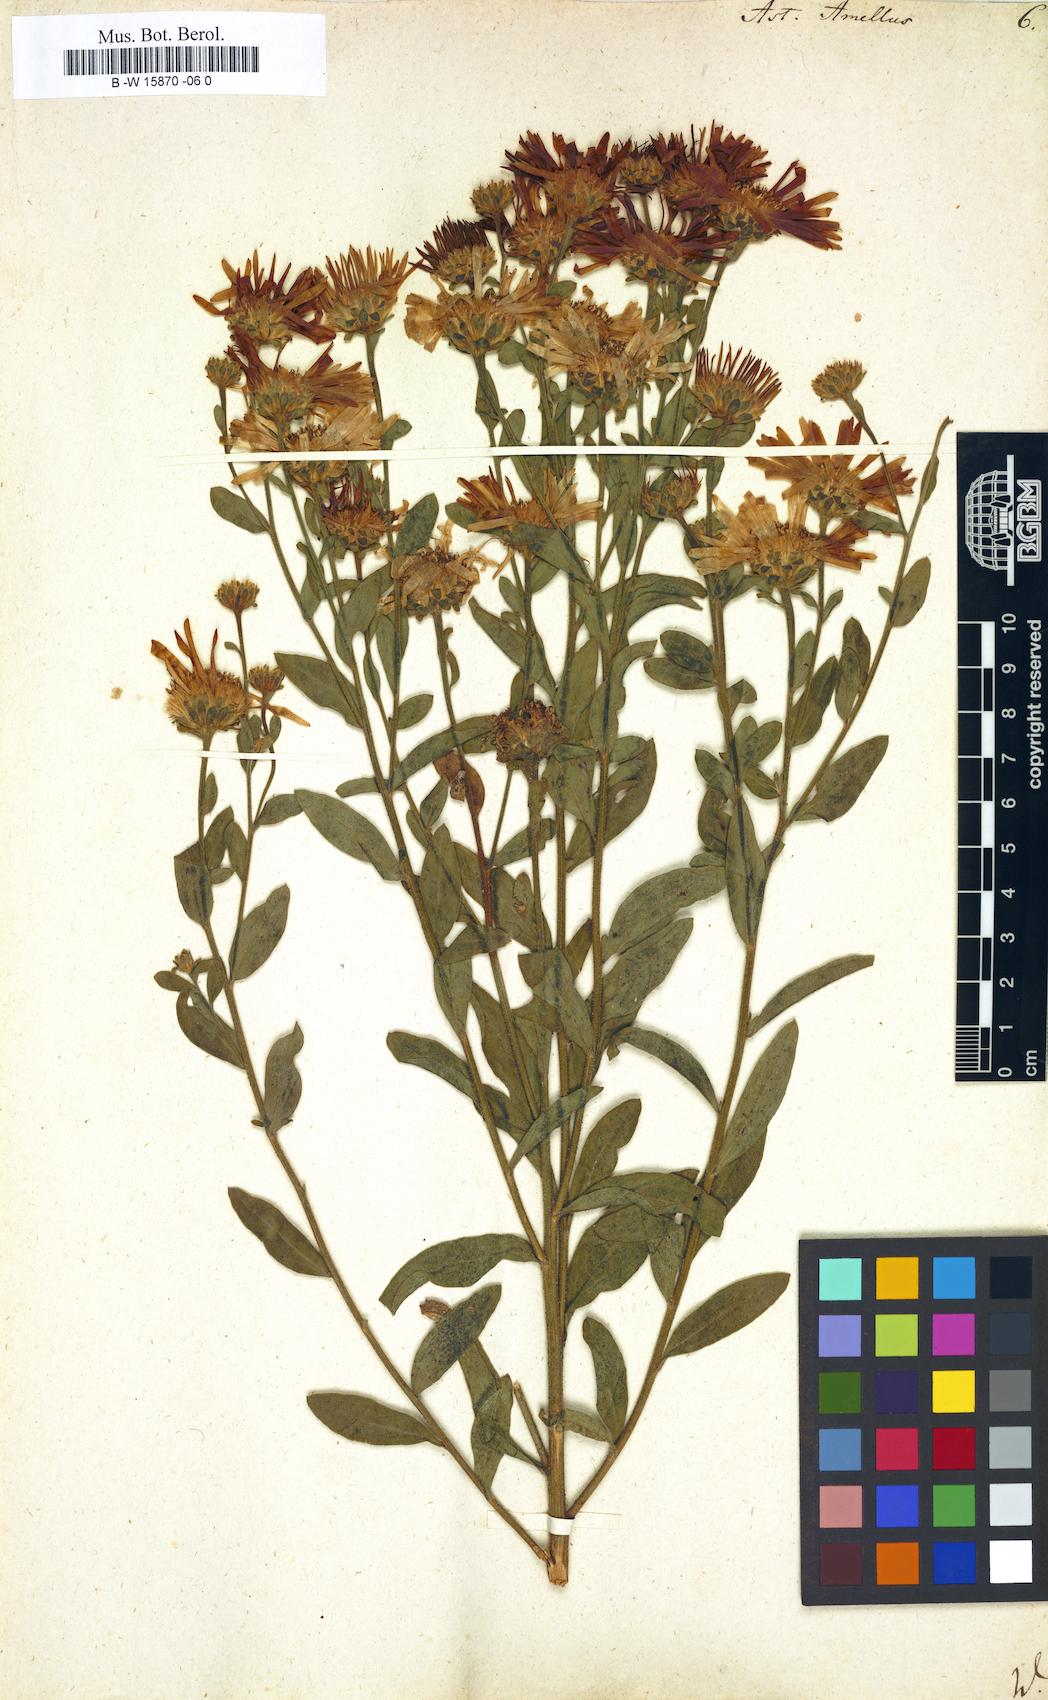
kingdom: Plantae
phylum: Tracheophyta
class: Magnoliopsida
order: Asterales
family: Asteraceae
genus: Aster
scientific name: Aster amellus
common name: European michaelmas daisy
